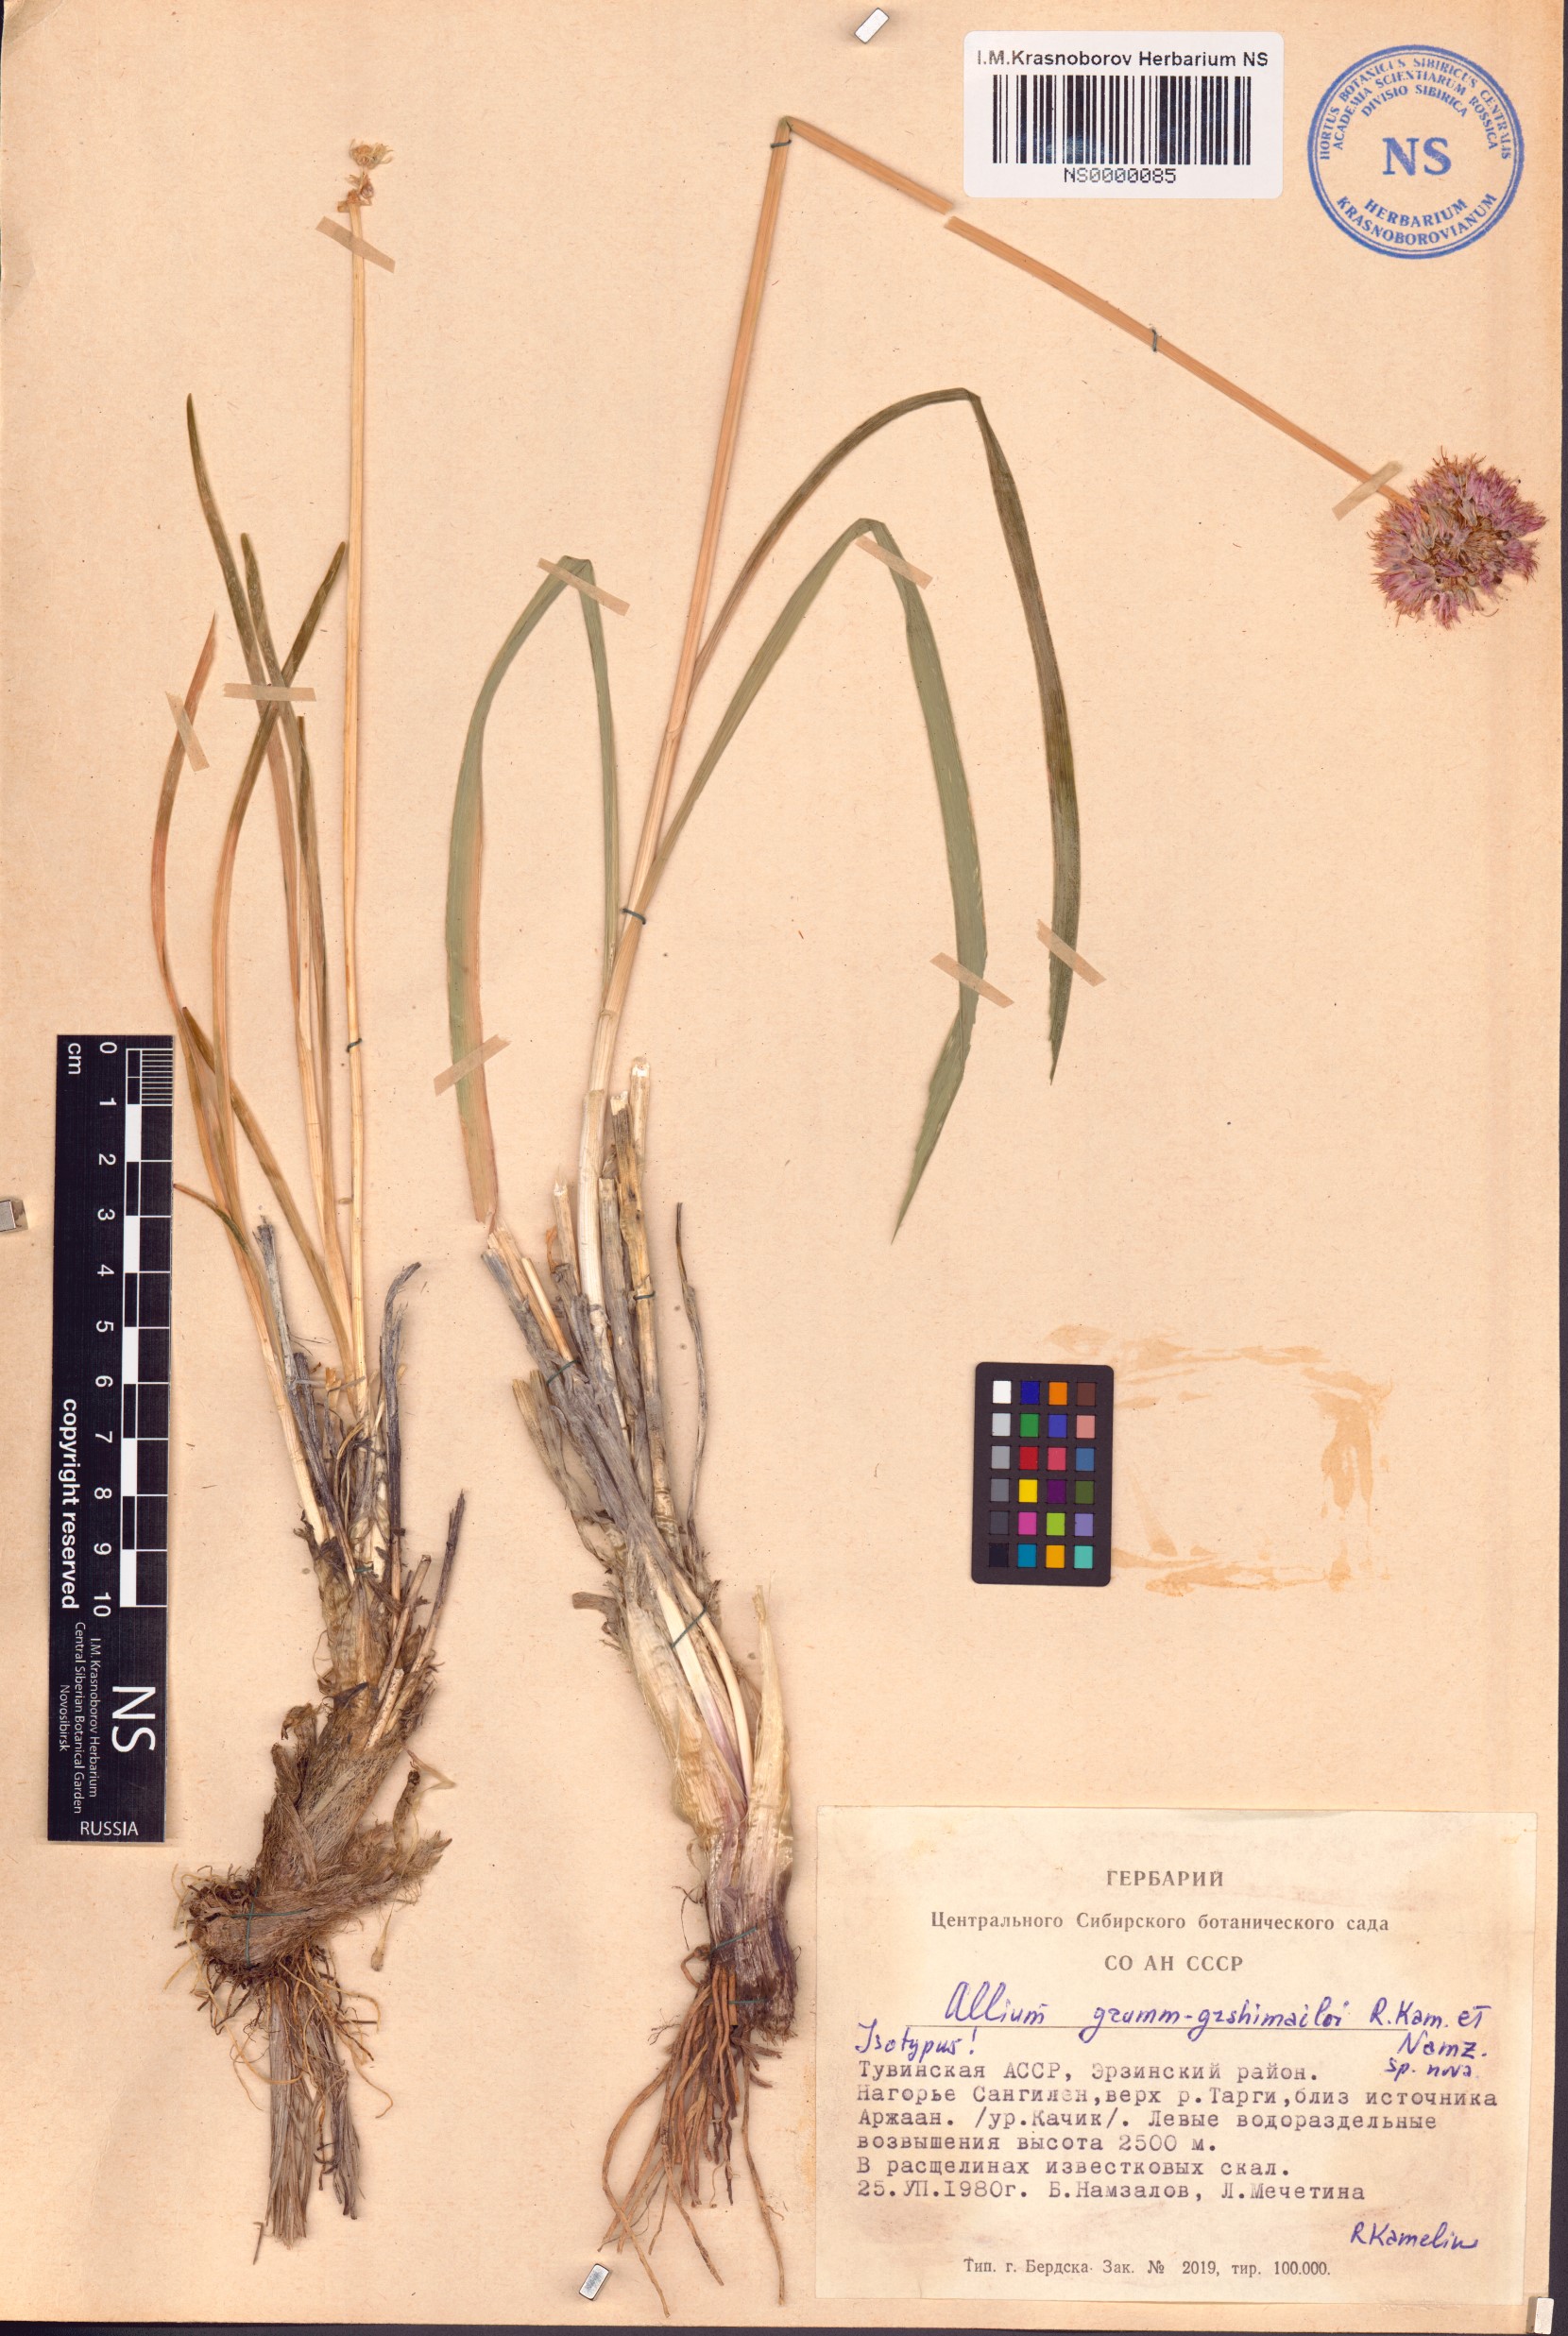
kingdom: Plantae
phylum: Tracheophyta
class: Liliopsida
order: Asparagales
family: Amaryllidaceae
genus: Allium
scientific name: Allium grumm-grshimailoi
